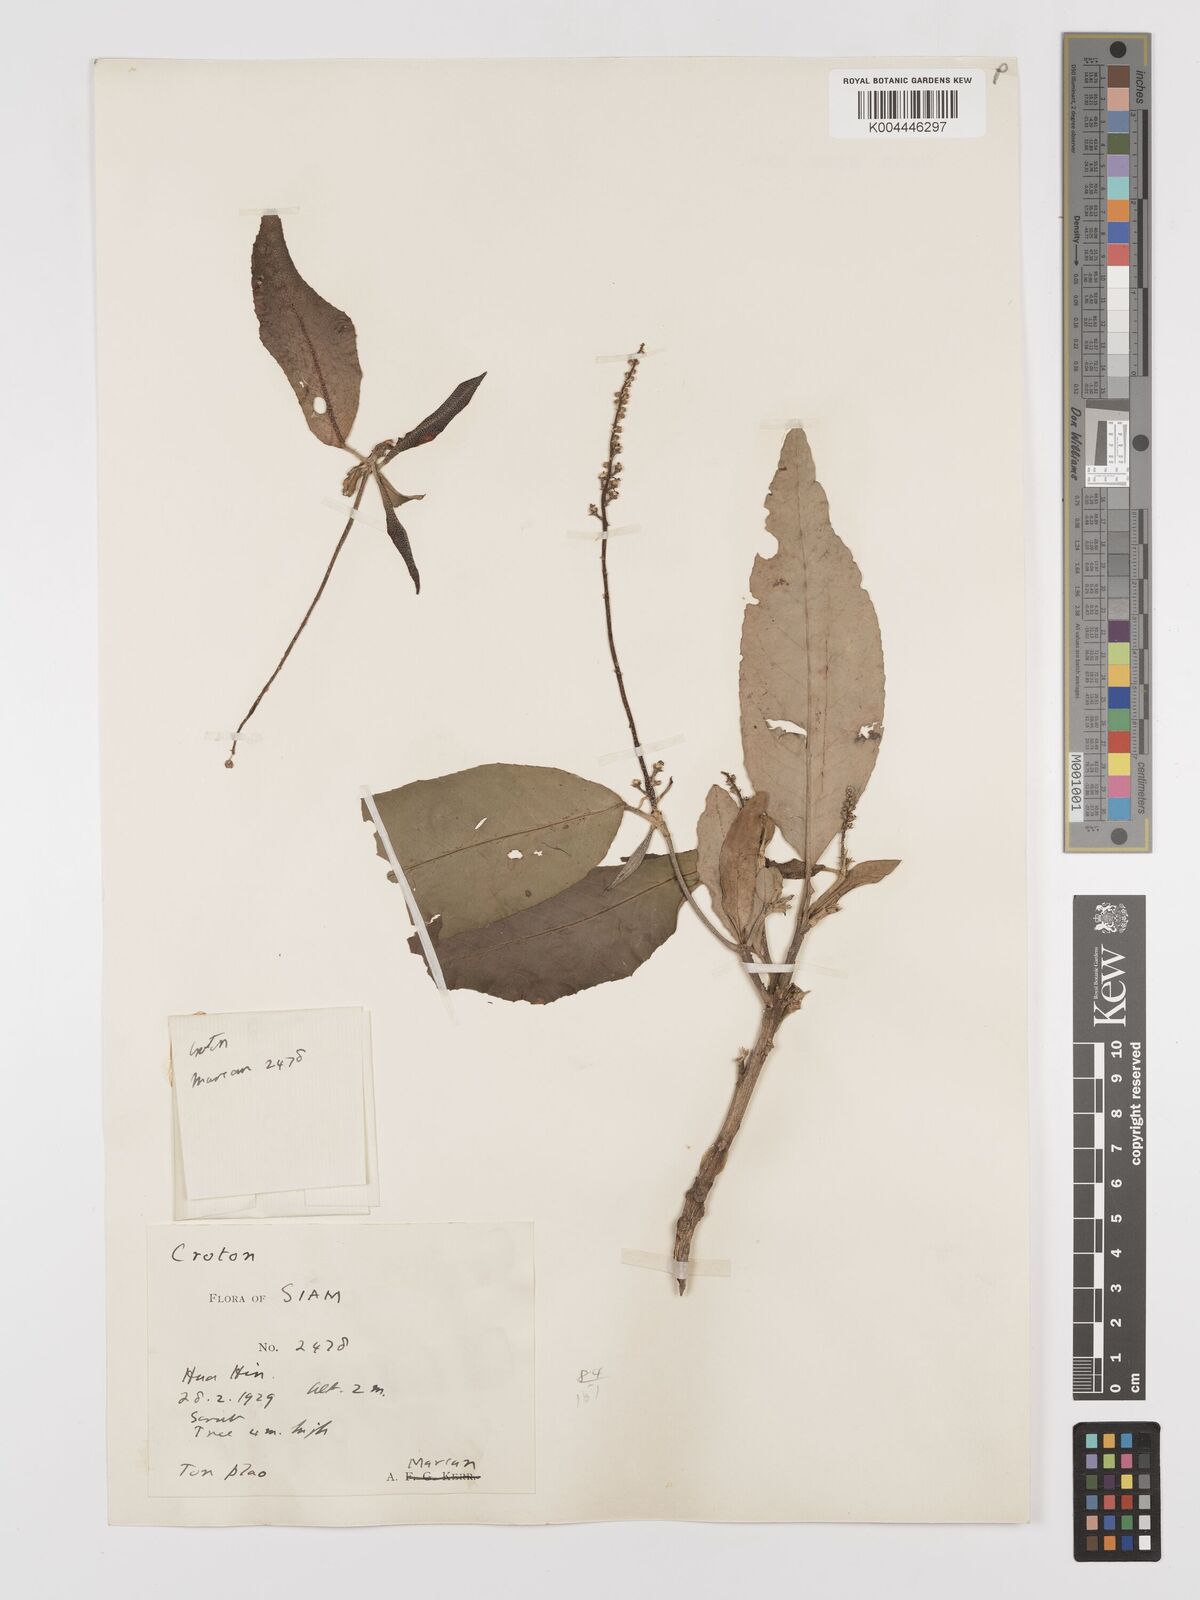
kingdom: Plantae
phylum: Tracheophyta
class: Magnoliopsida
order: Malpighiales
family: Euphorbiaceae
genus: Croton
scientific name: Croton
